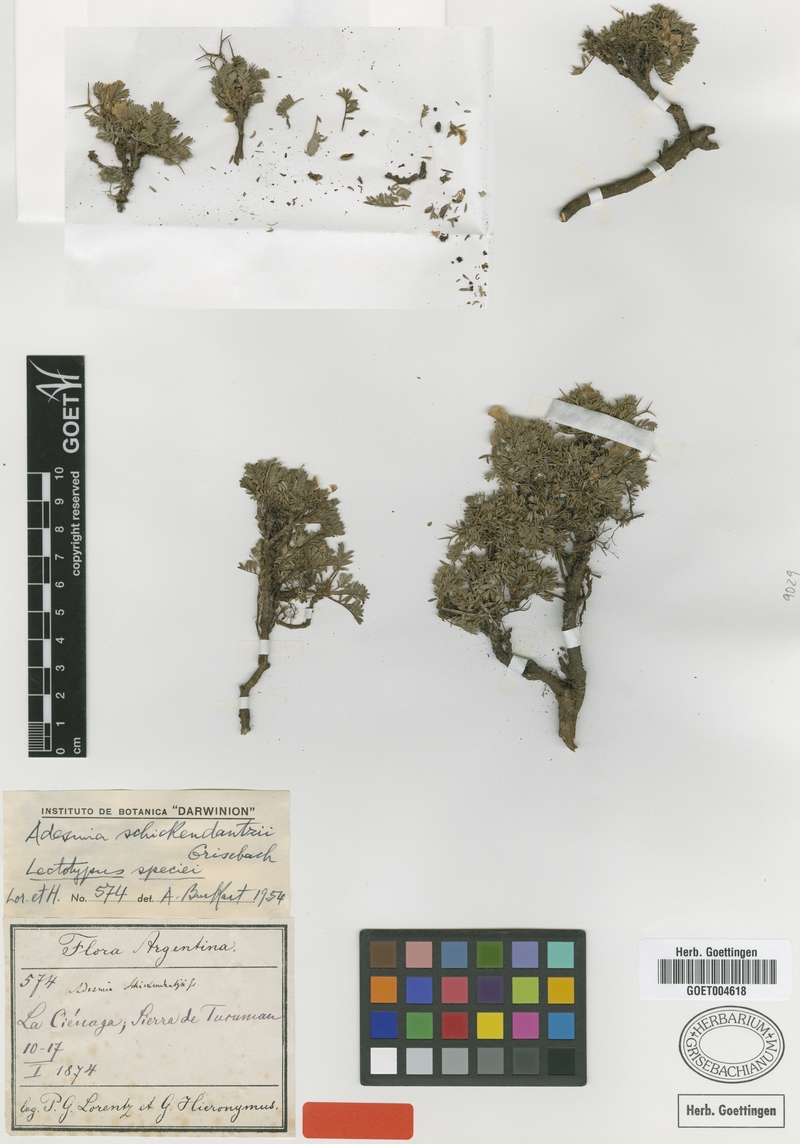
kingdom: Plantae
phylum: Tracheophyta
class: Magnoliopsida
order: Fabales
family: Fabaceae
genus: Adesmia
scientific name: Adesmia schickendantzii
